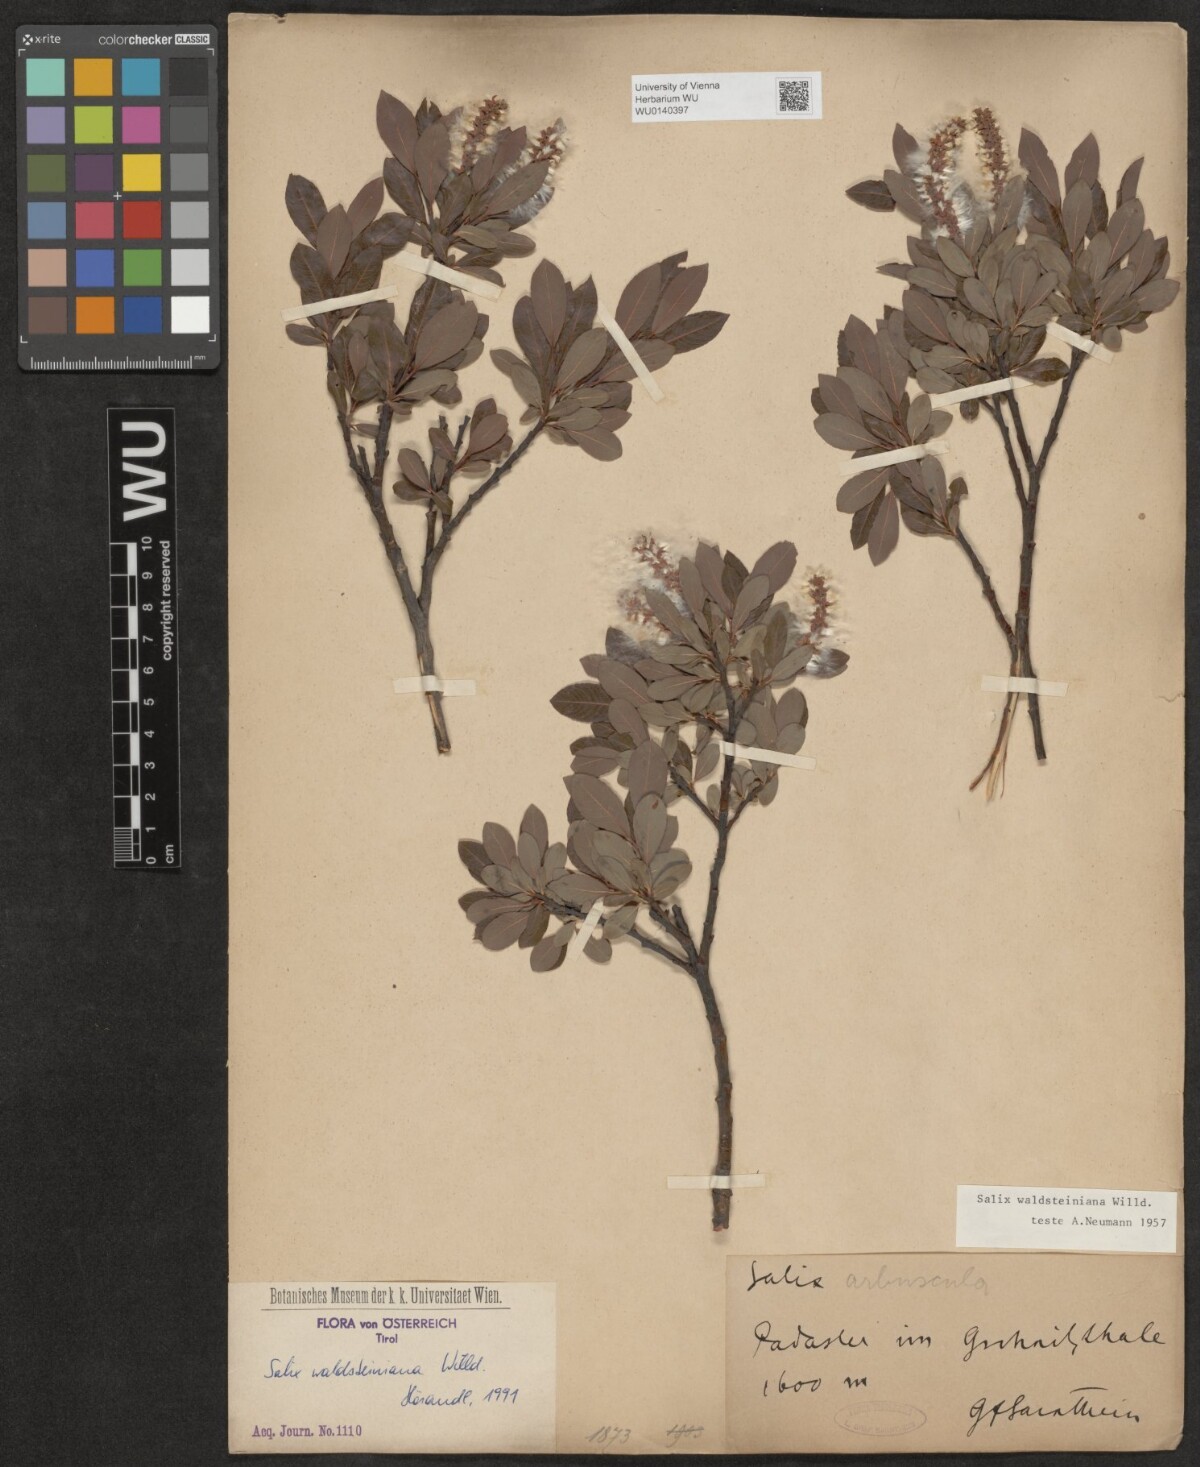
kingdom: Plantae
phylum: Tracheophyta
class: Magnoliopsida
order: Malpighiales
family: Salicaceae
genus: Salix
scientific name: Salix waldsteiniana
